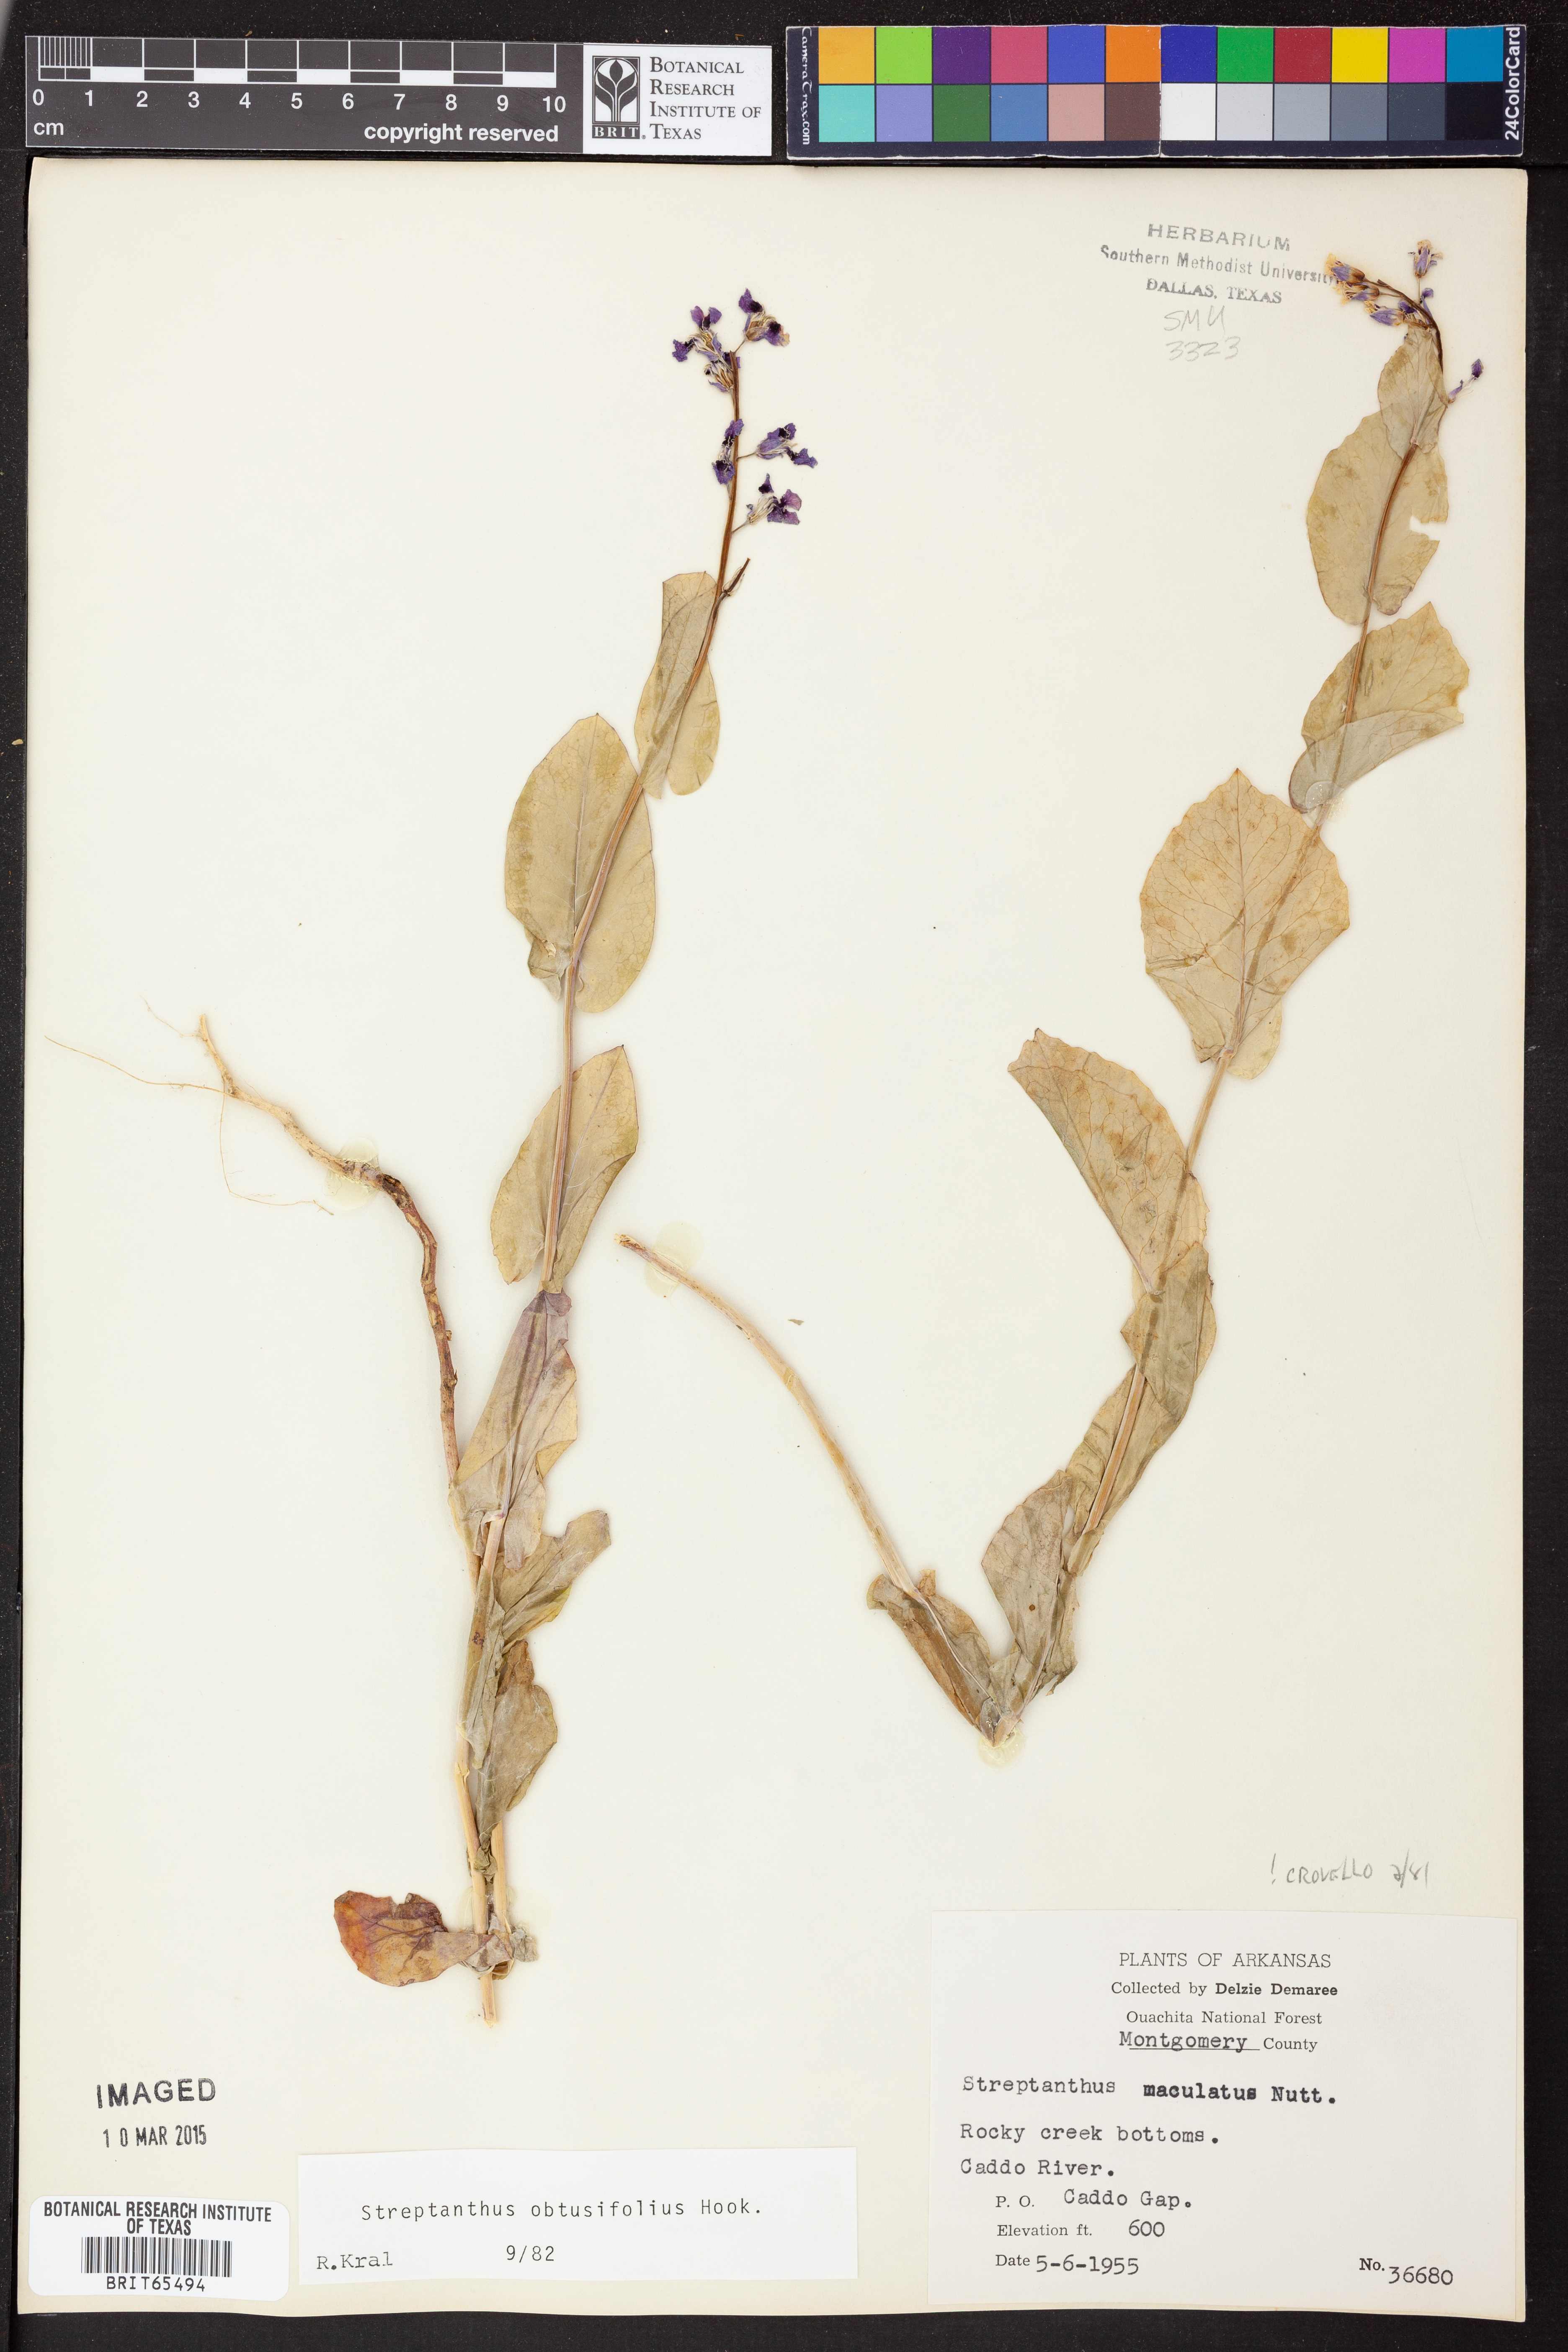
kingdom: Plantae
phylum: Tracheophyta
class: Magnoliopsida
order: Brassicales
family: Brassicaceae
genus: Streptanthus
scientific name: Streptanthus maculatus
